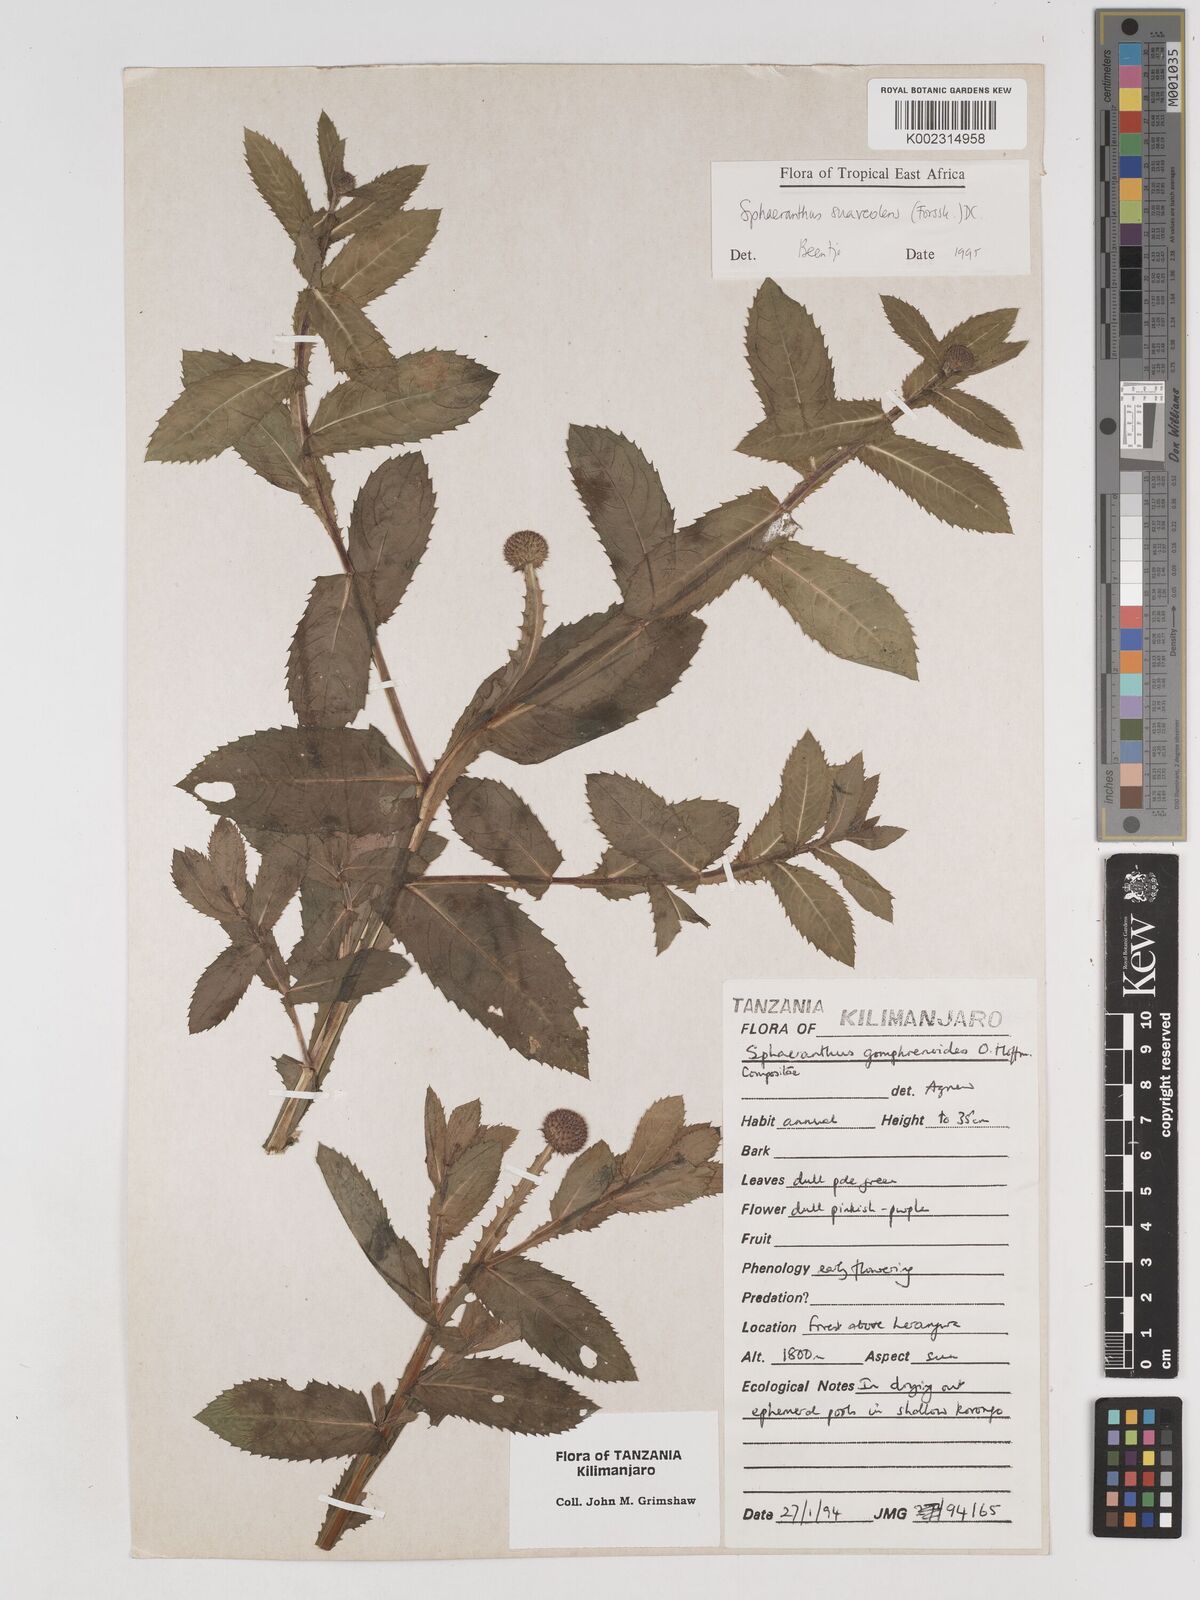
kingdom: Plantae
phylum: Tracheophyta
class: Magnoliopsida
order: Asterales
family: Asteraceae
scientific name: Asteraceae
